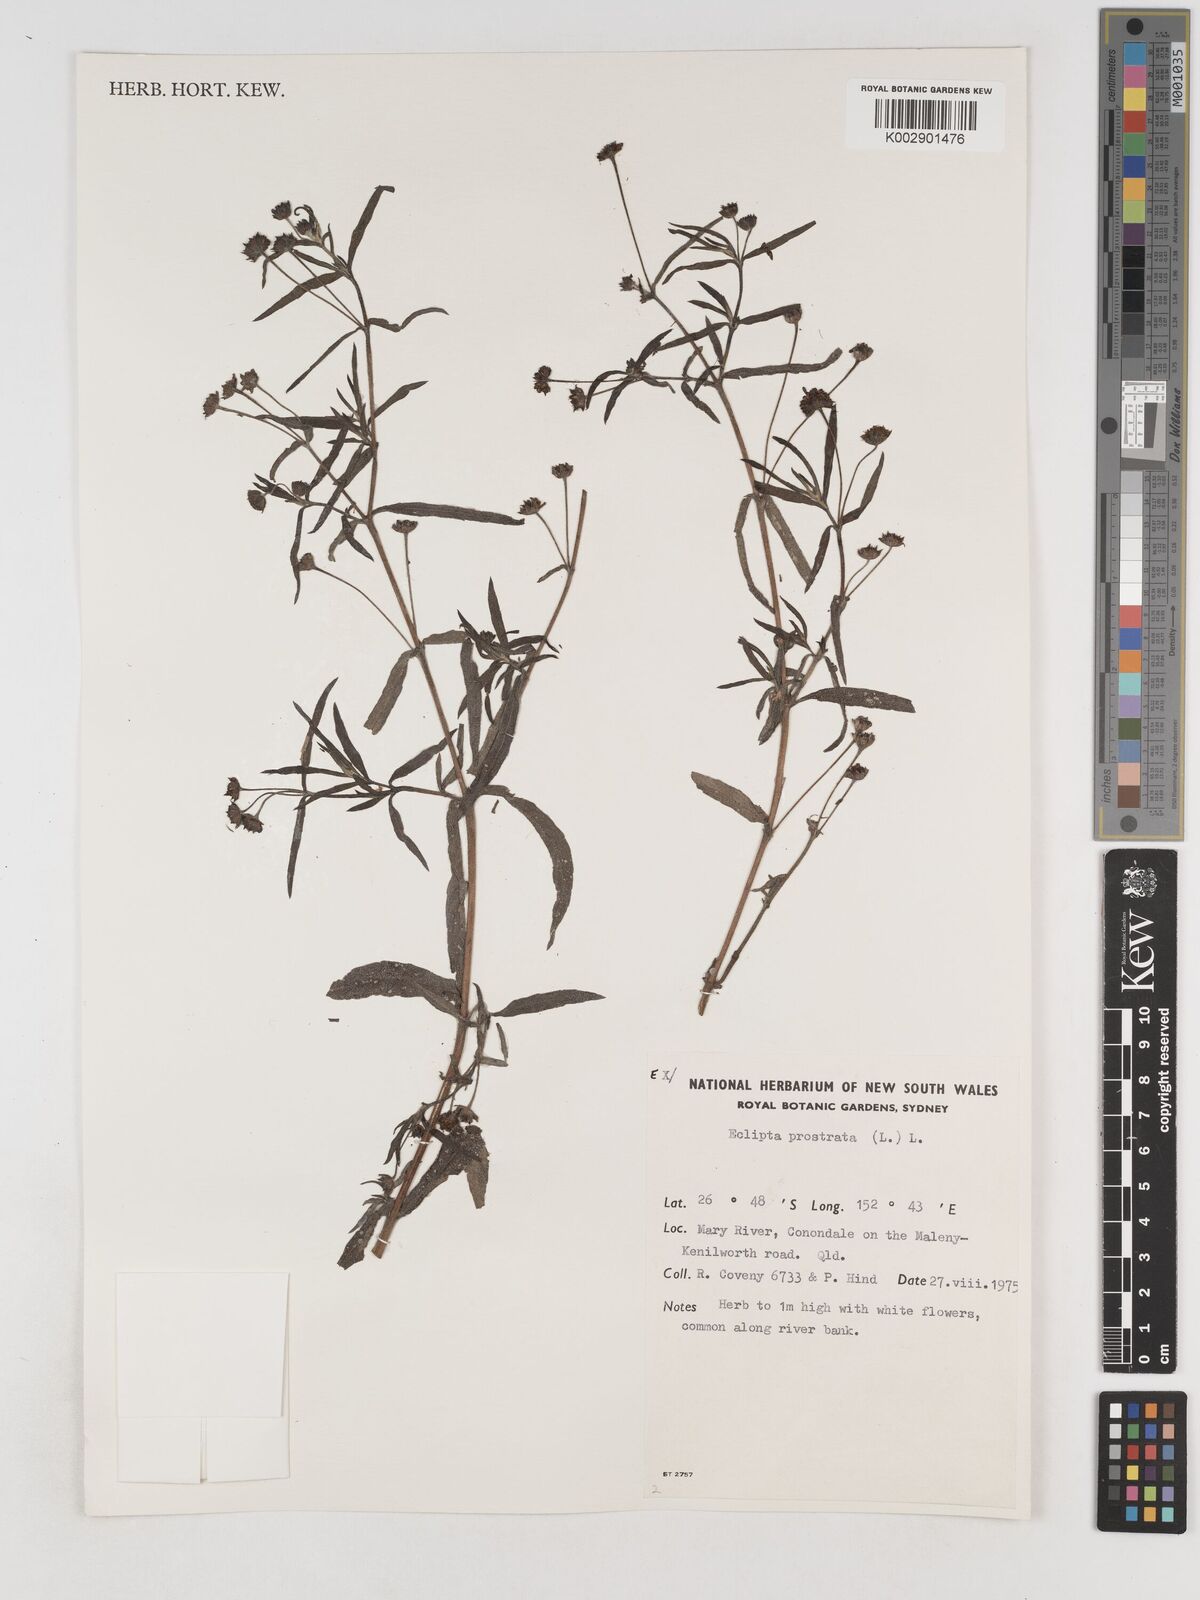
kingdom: Plantae
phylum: Tracheophyta
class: Magnoliopsida
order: Asterales
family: Asteraceae
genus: Eclipta
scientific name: Eclipta prostrata
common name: False daisy
